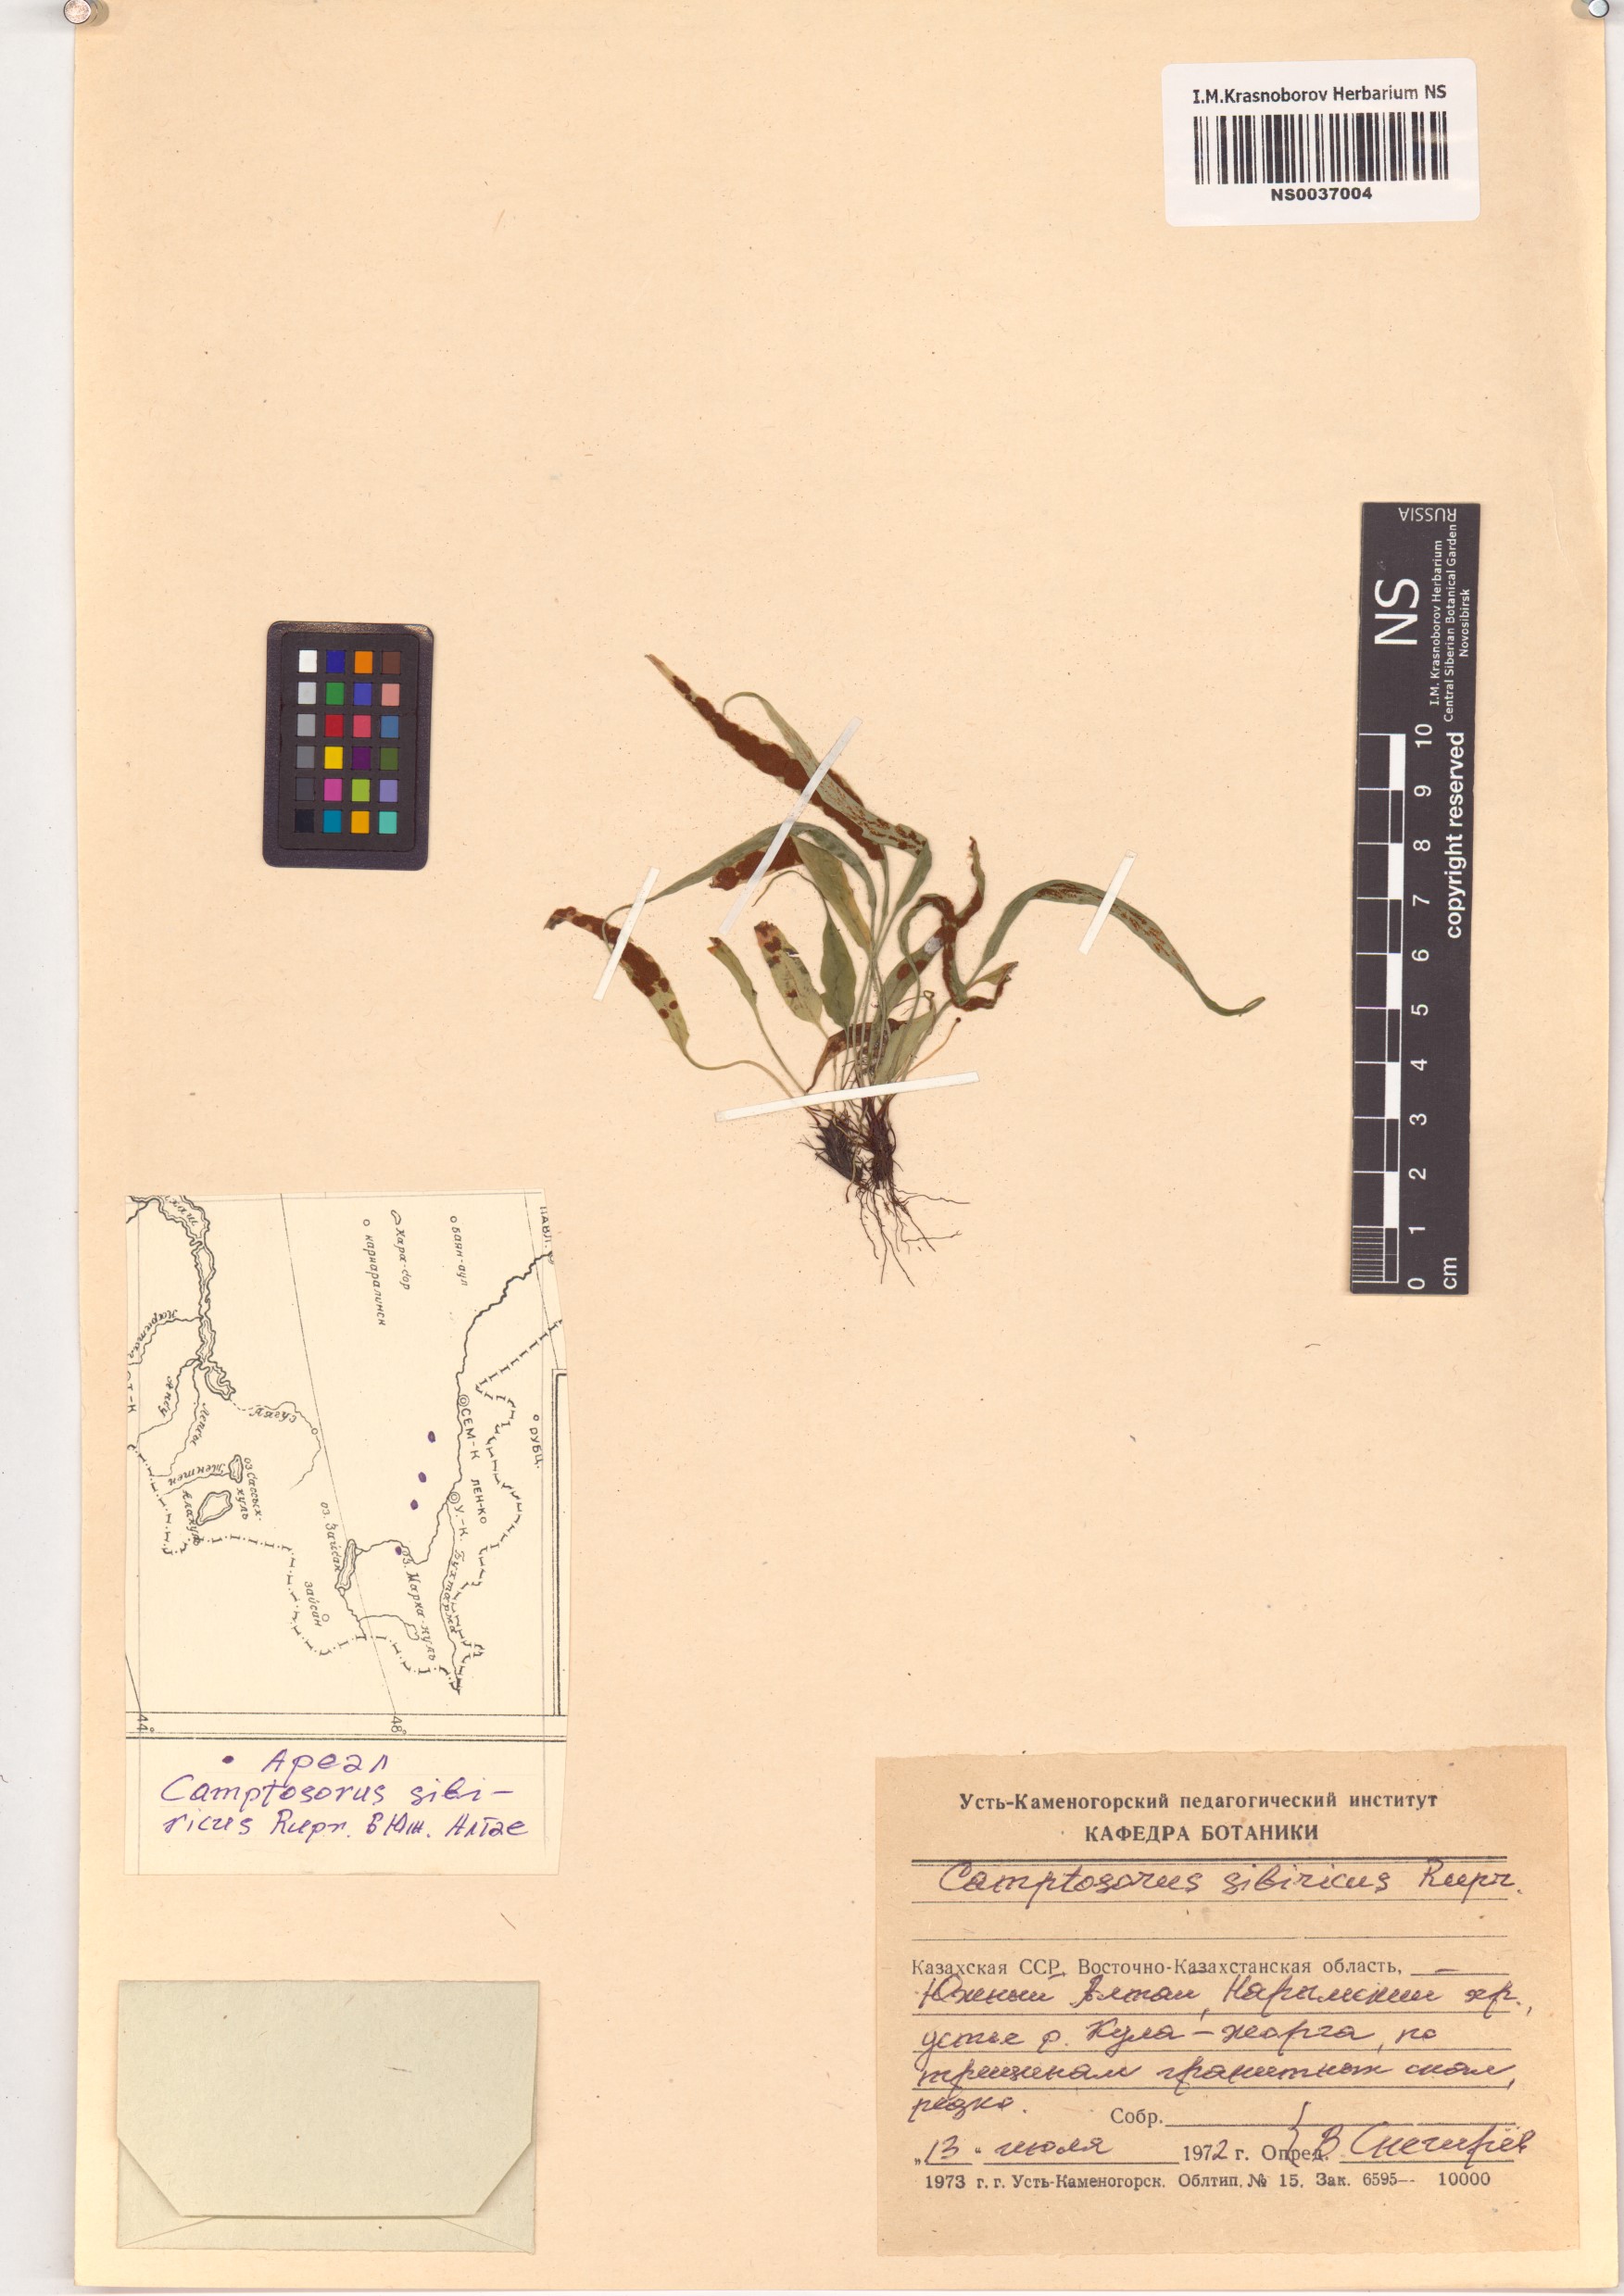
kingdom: Plantae
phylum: Tracheophyta
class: Polypodiopsida
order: Polypodiales
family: Aspleniaceae
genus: Asplenium
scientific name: Asplenium ruprechtii
